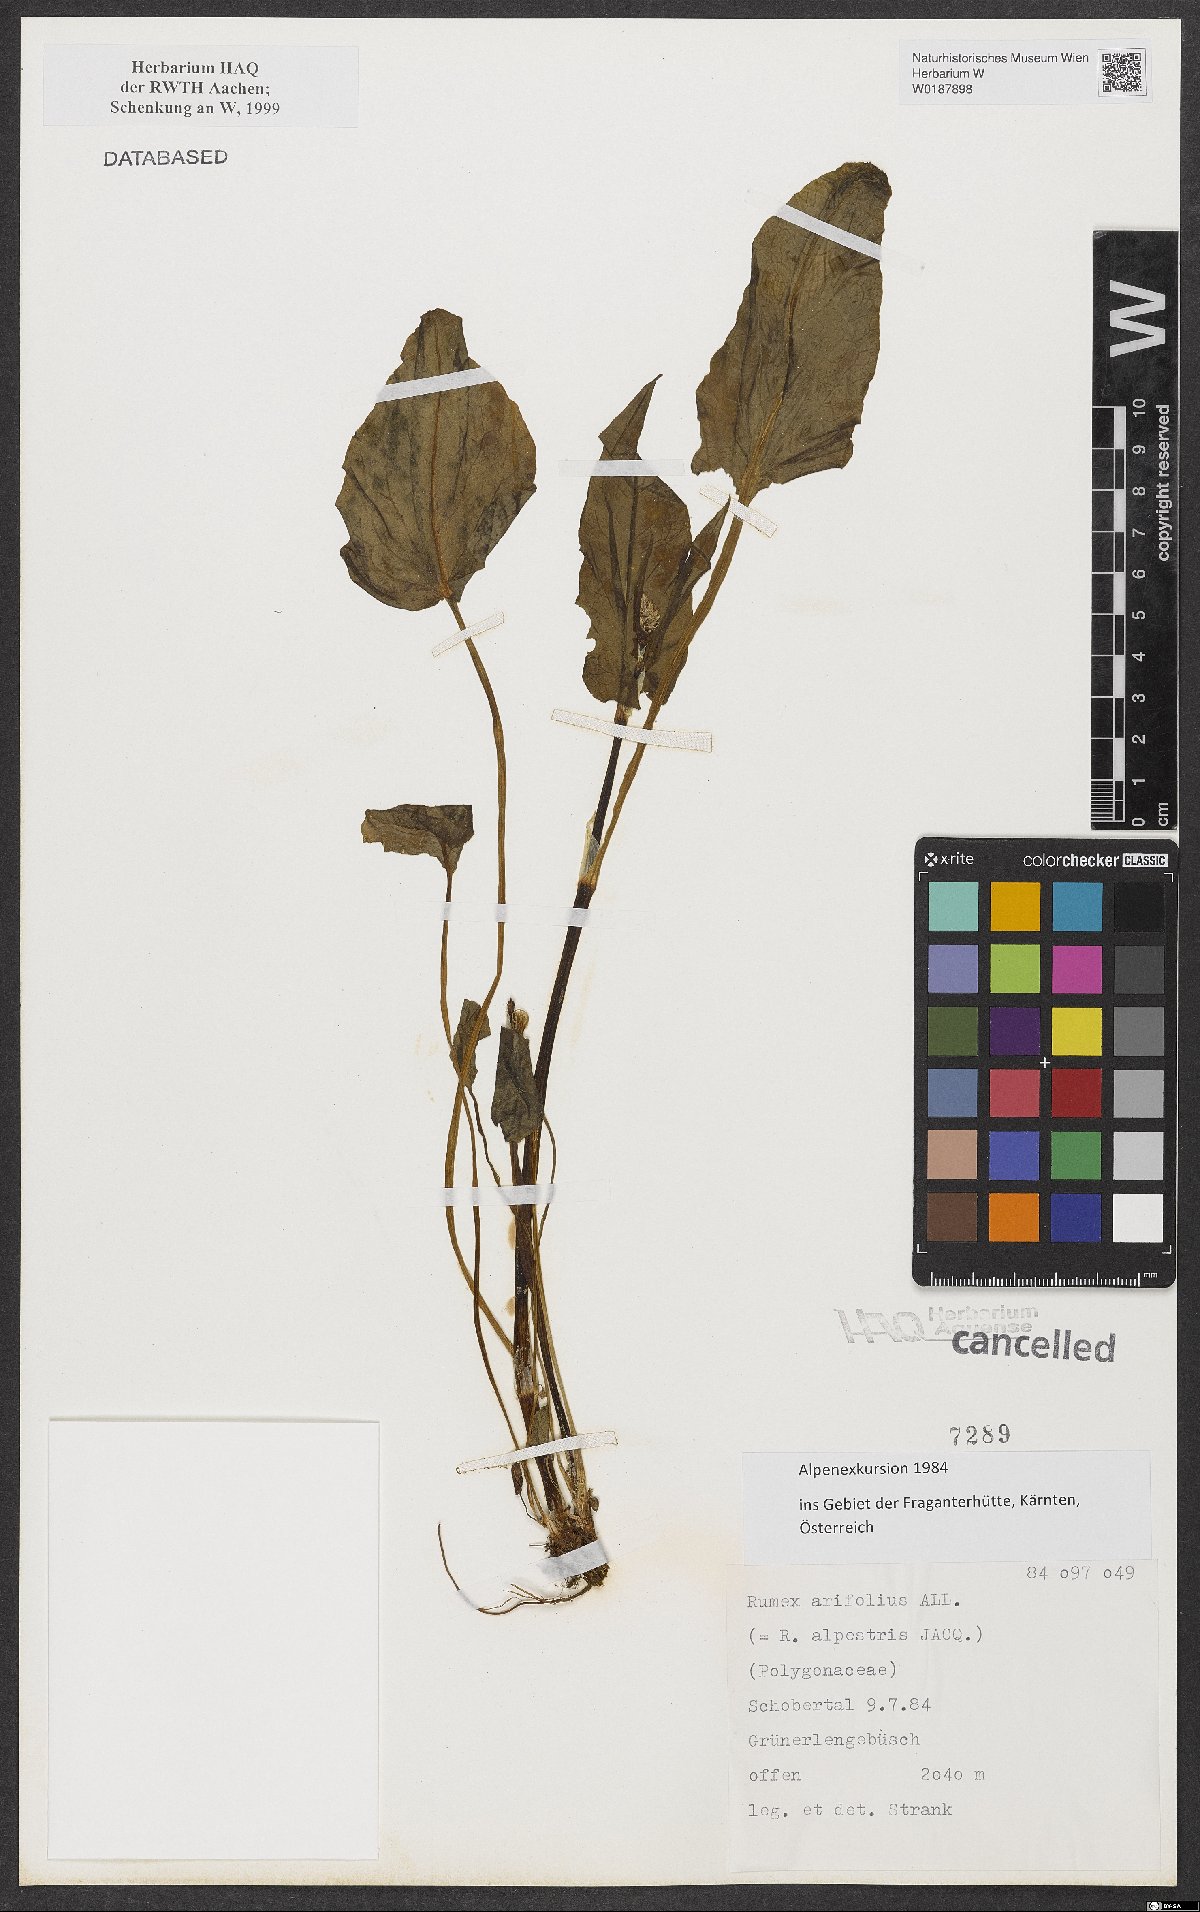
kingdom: Plantae
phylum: Tracheophyta
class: Magnoliopsida
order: Caryophyllales
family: Polygonaceae
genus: Rumex
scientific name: Rumex arifolius
